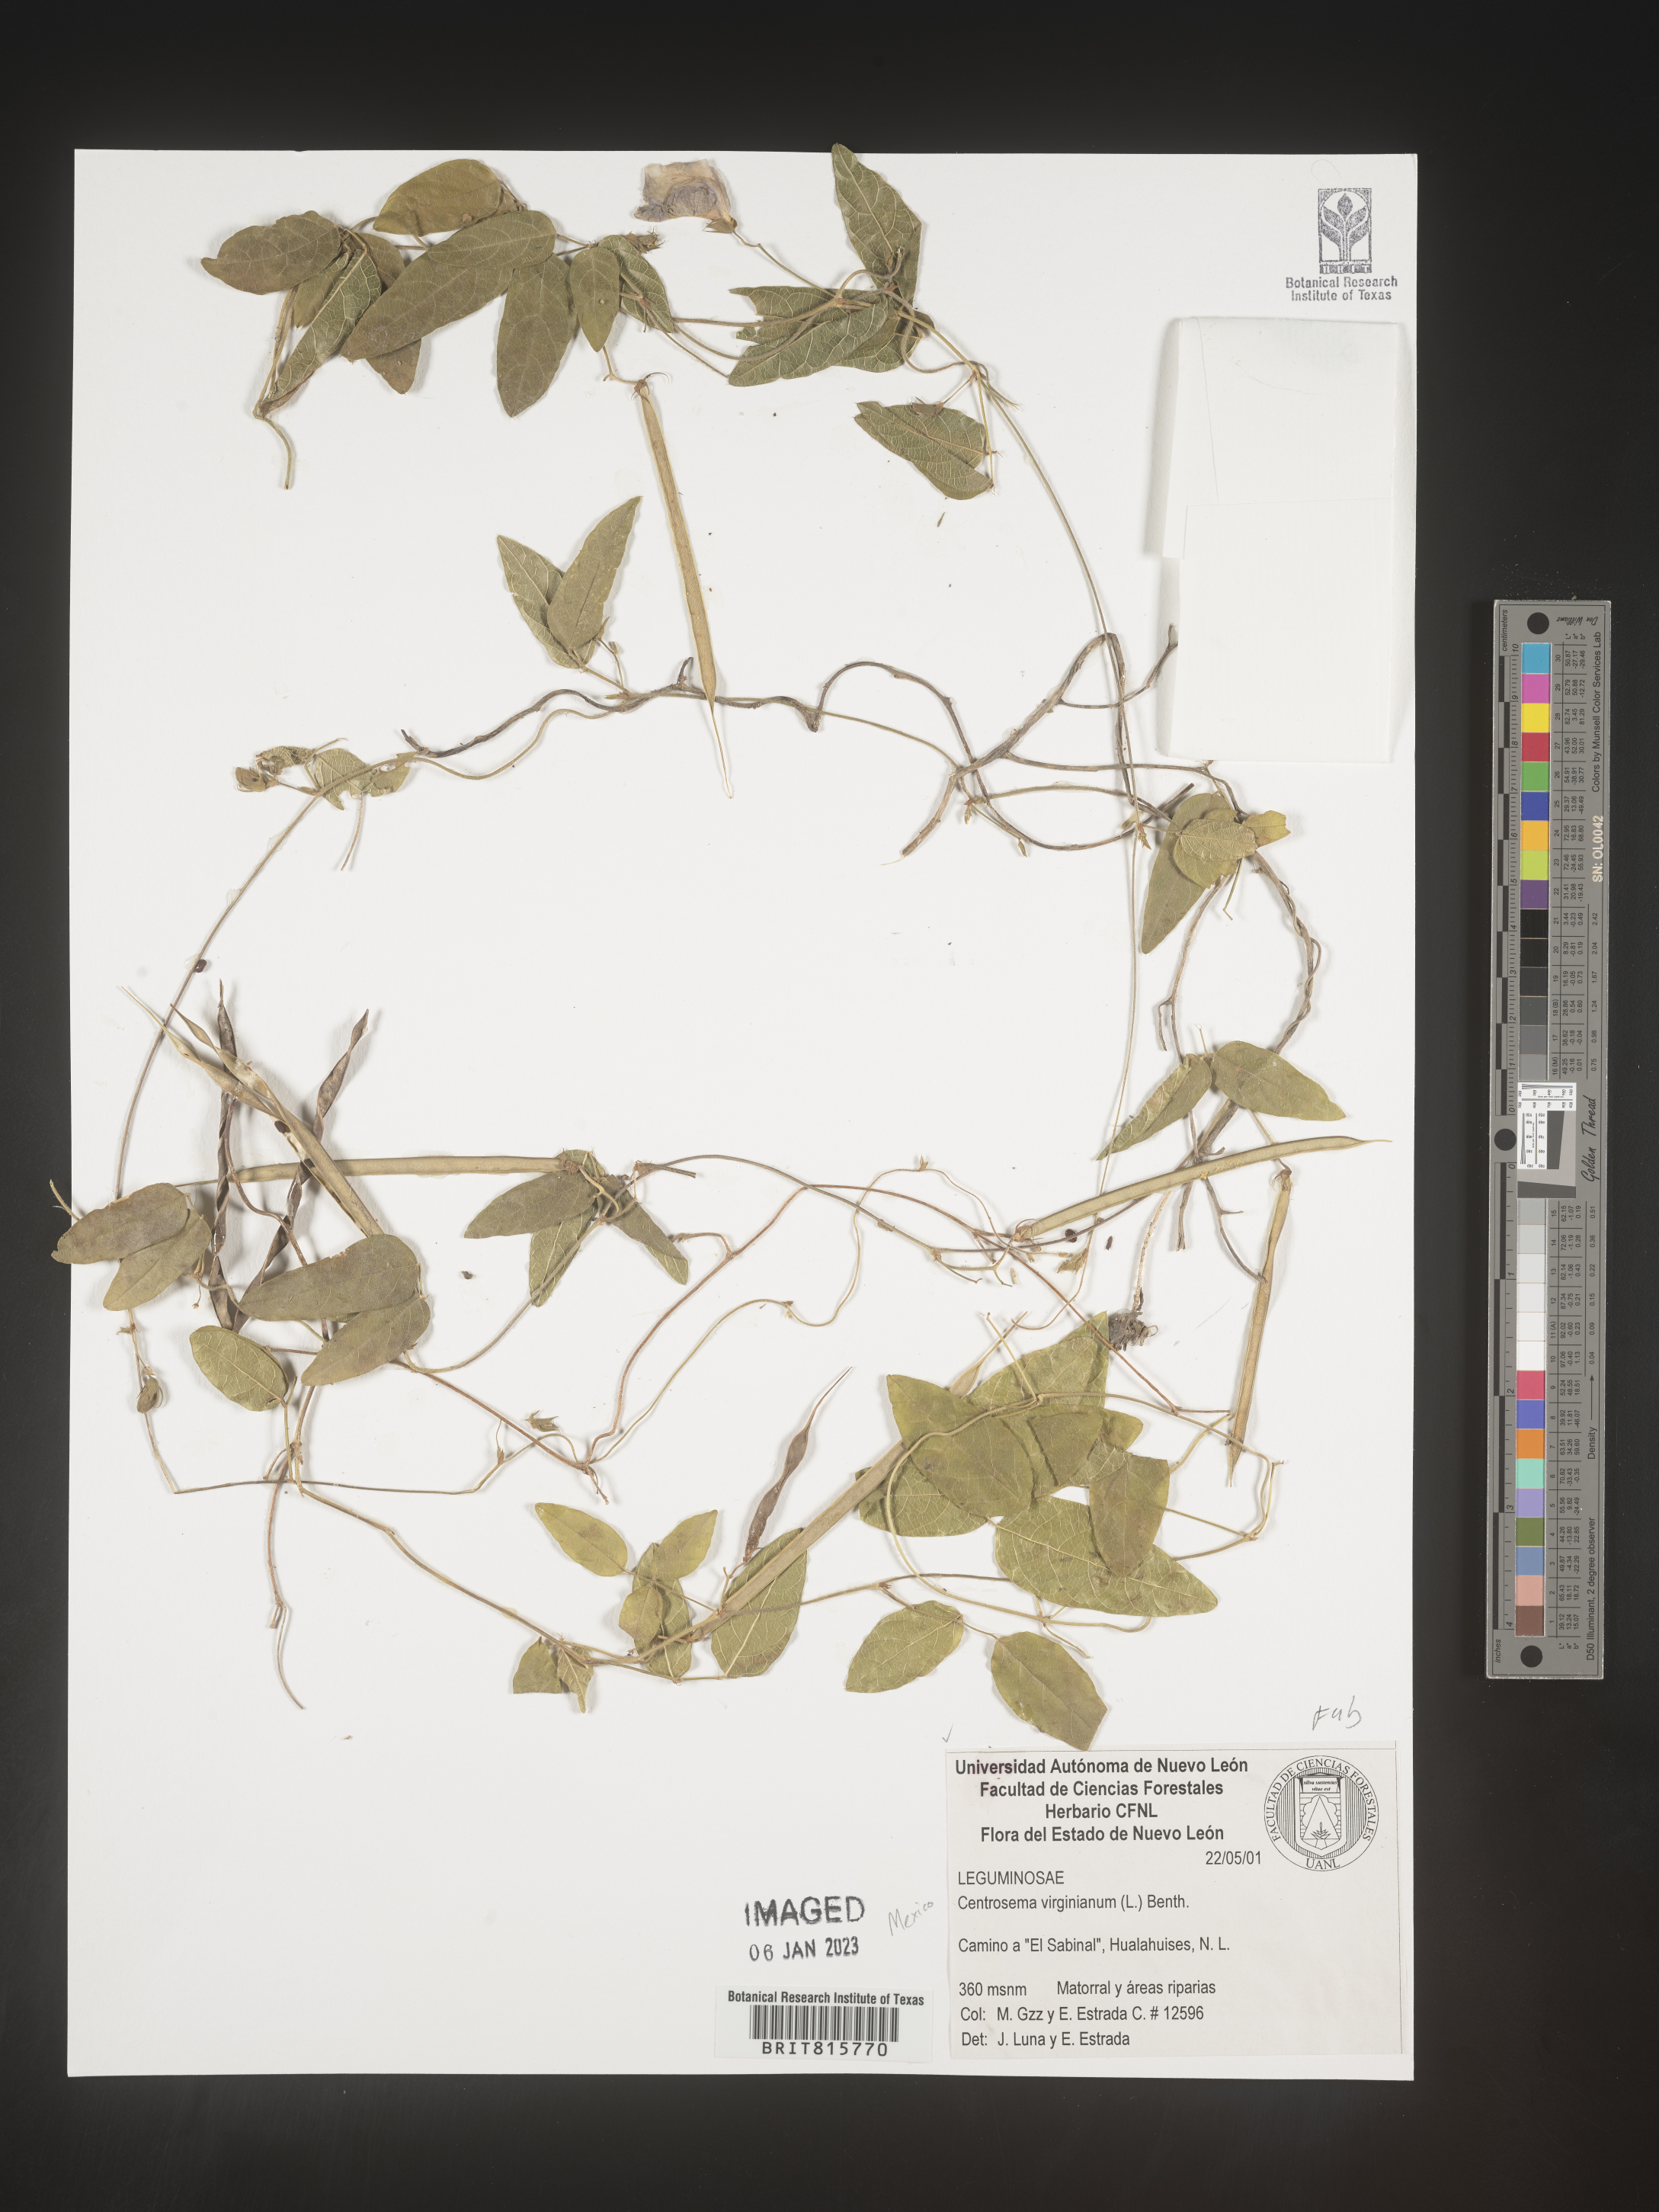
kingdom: Plantae
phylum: Tracheophyta
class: Magnoliopsida
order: Fabales
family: Fabaceae
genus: Centrosema
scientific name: Centrosema
